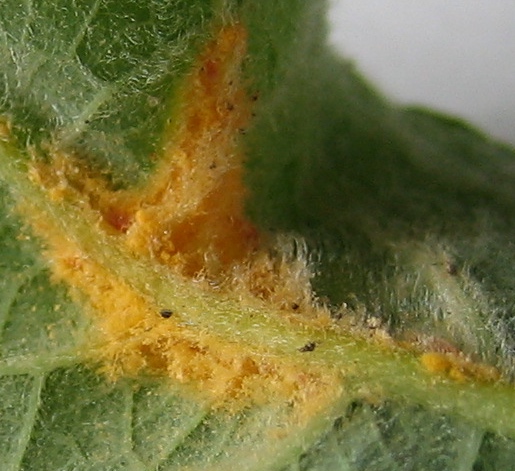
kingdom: Fungi
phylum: Basidiomycota
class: Pucciniomycetes
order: Pucciniales
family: Melampsoraceae
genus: Melampsora
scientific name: Melampsora
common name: skorperust
